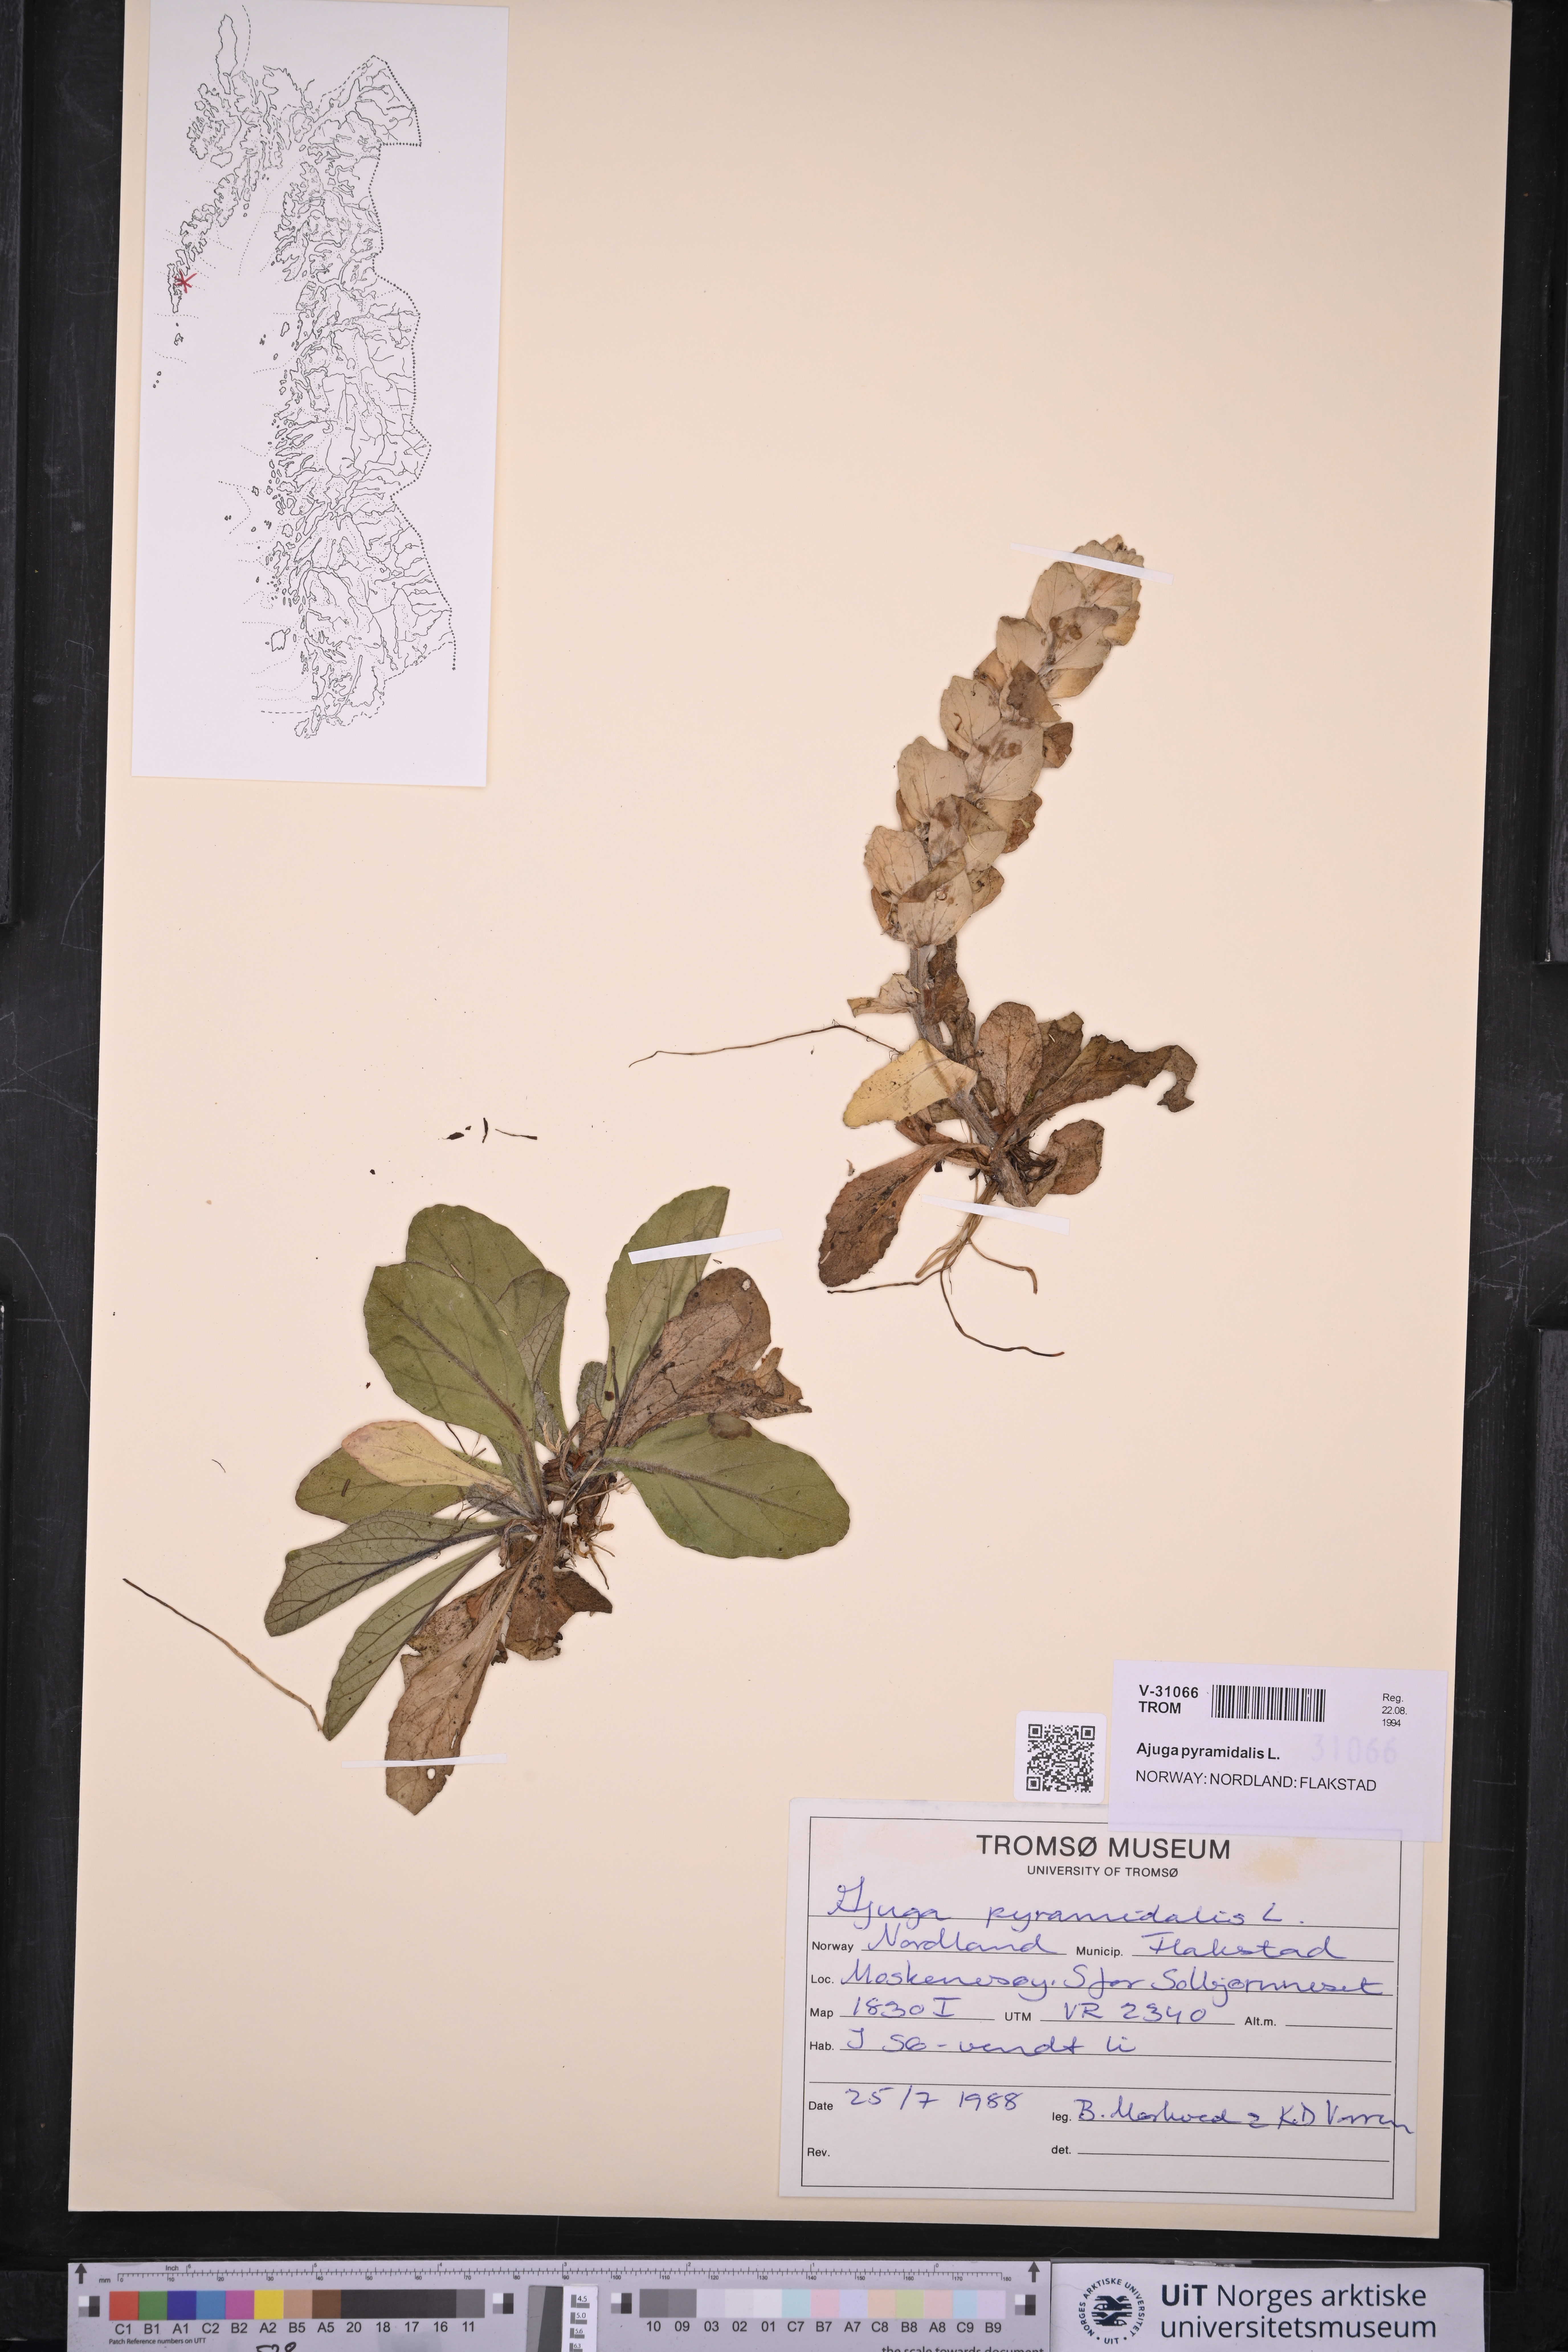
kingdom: Plantae
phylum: Tracheophyta
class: Magnoliopsida
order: Lamiales
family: Lamiaceae
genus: Ajuga
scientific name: Ajuga pyramidalis
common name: Pyramid bugle
